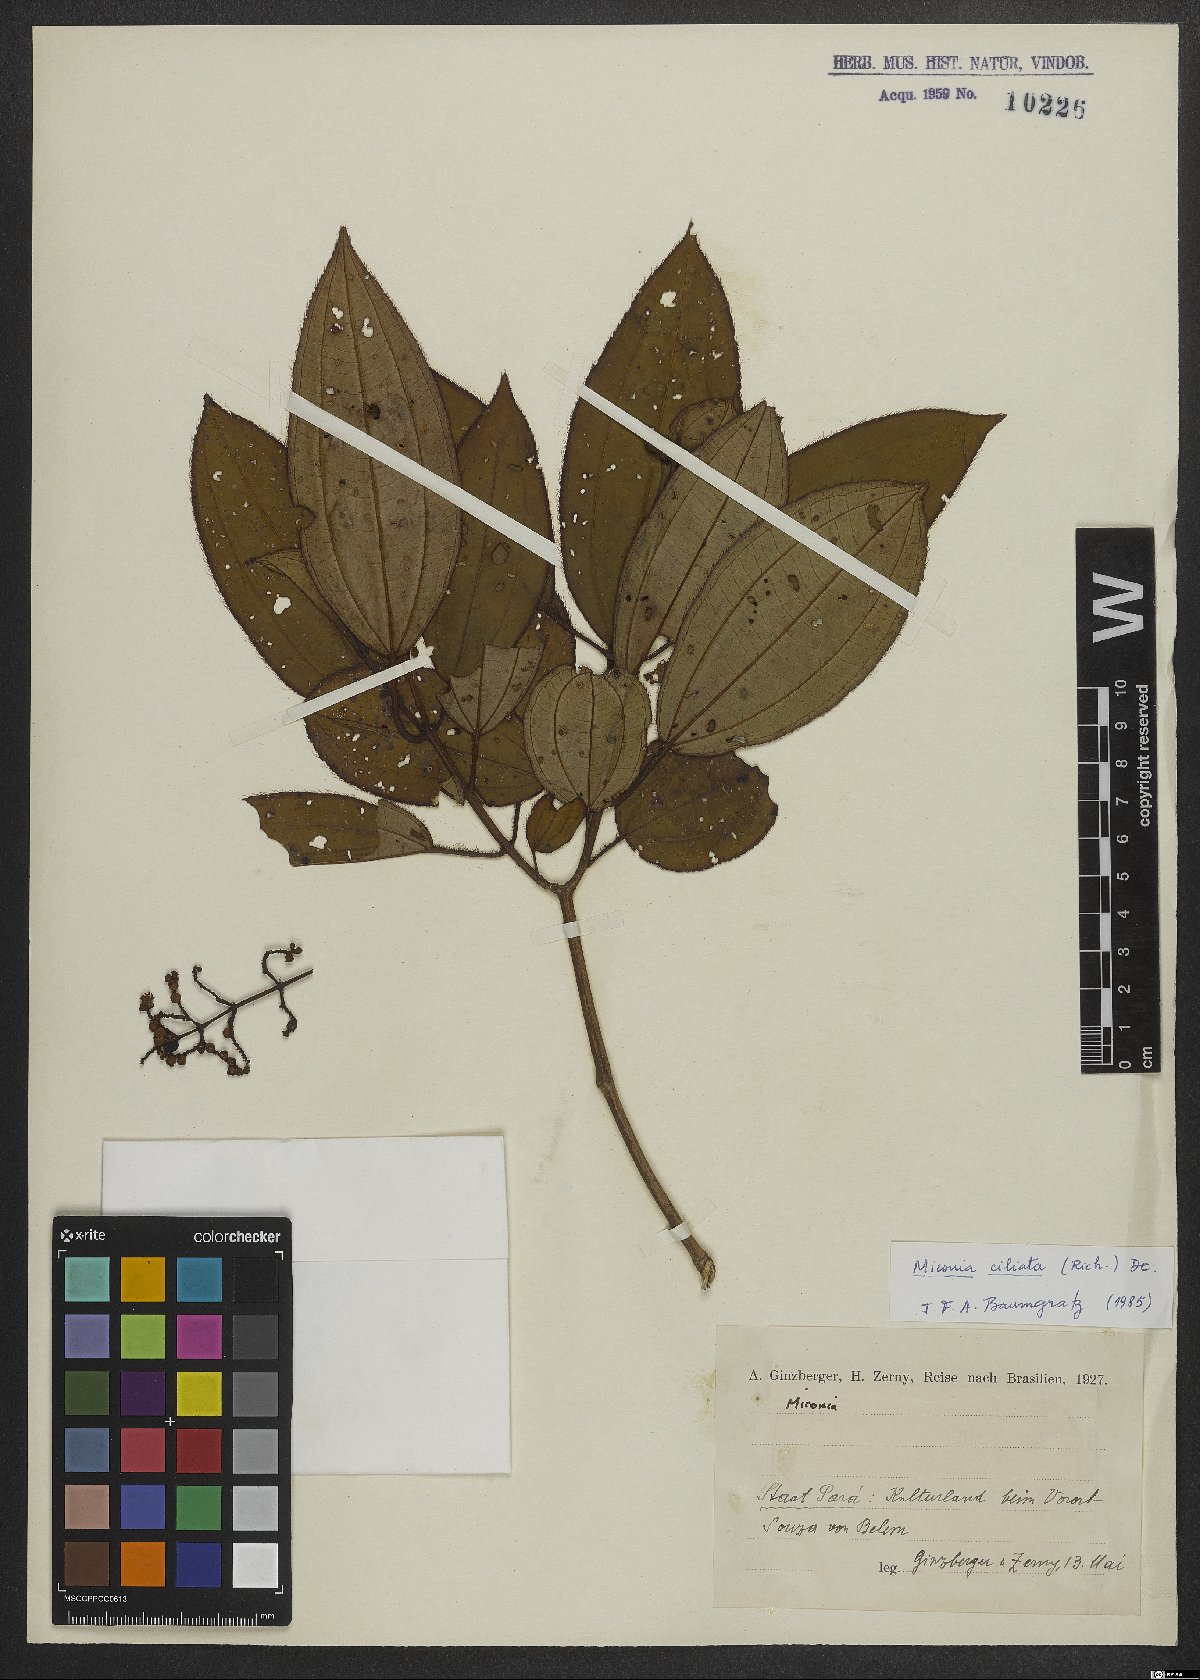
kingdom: Plantae
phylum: Tracheophyta
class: Magnoliopsida
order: Myrtales
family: Melastomataceae
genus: Miconia
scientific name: Miconia ciliata
